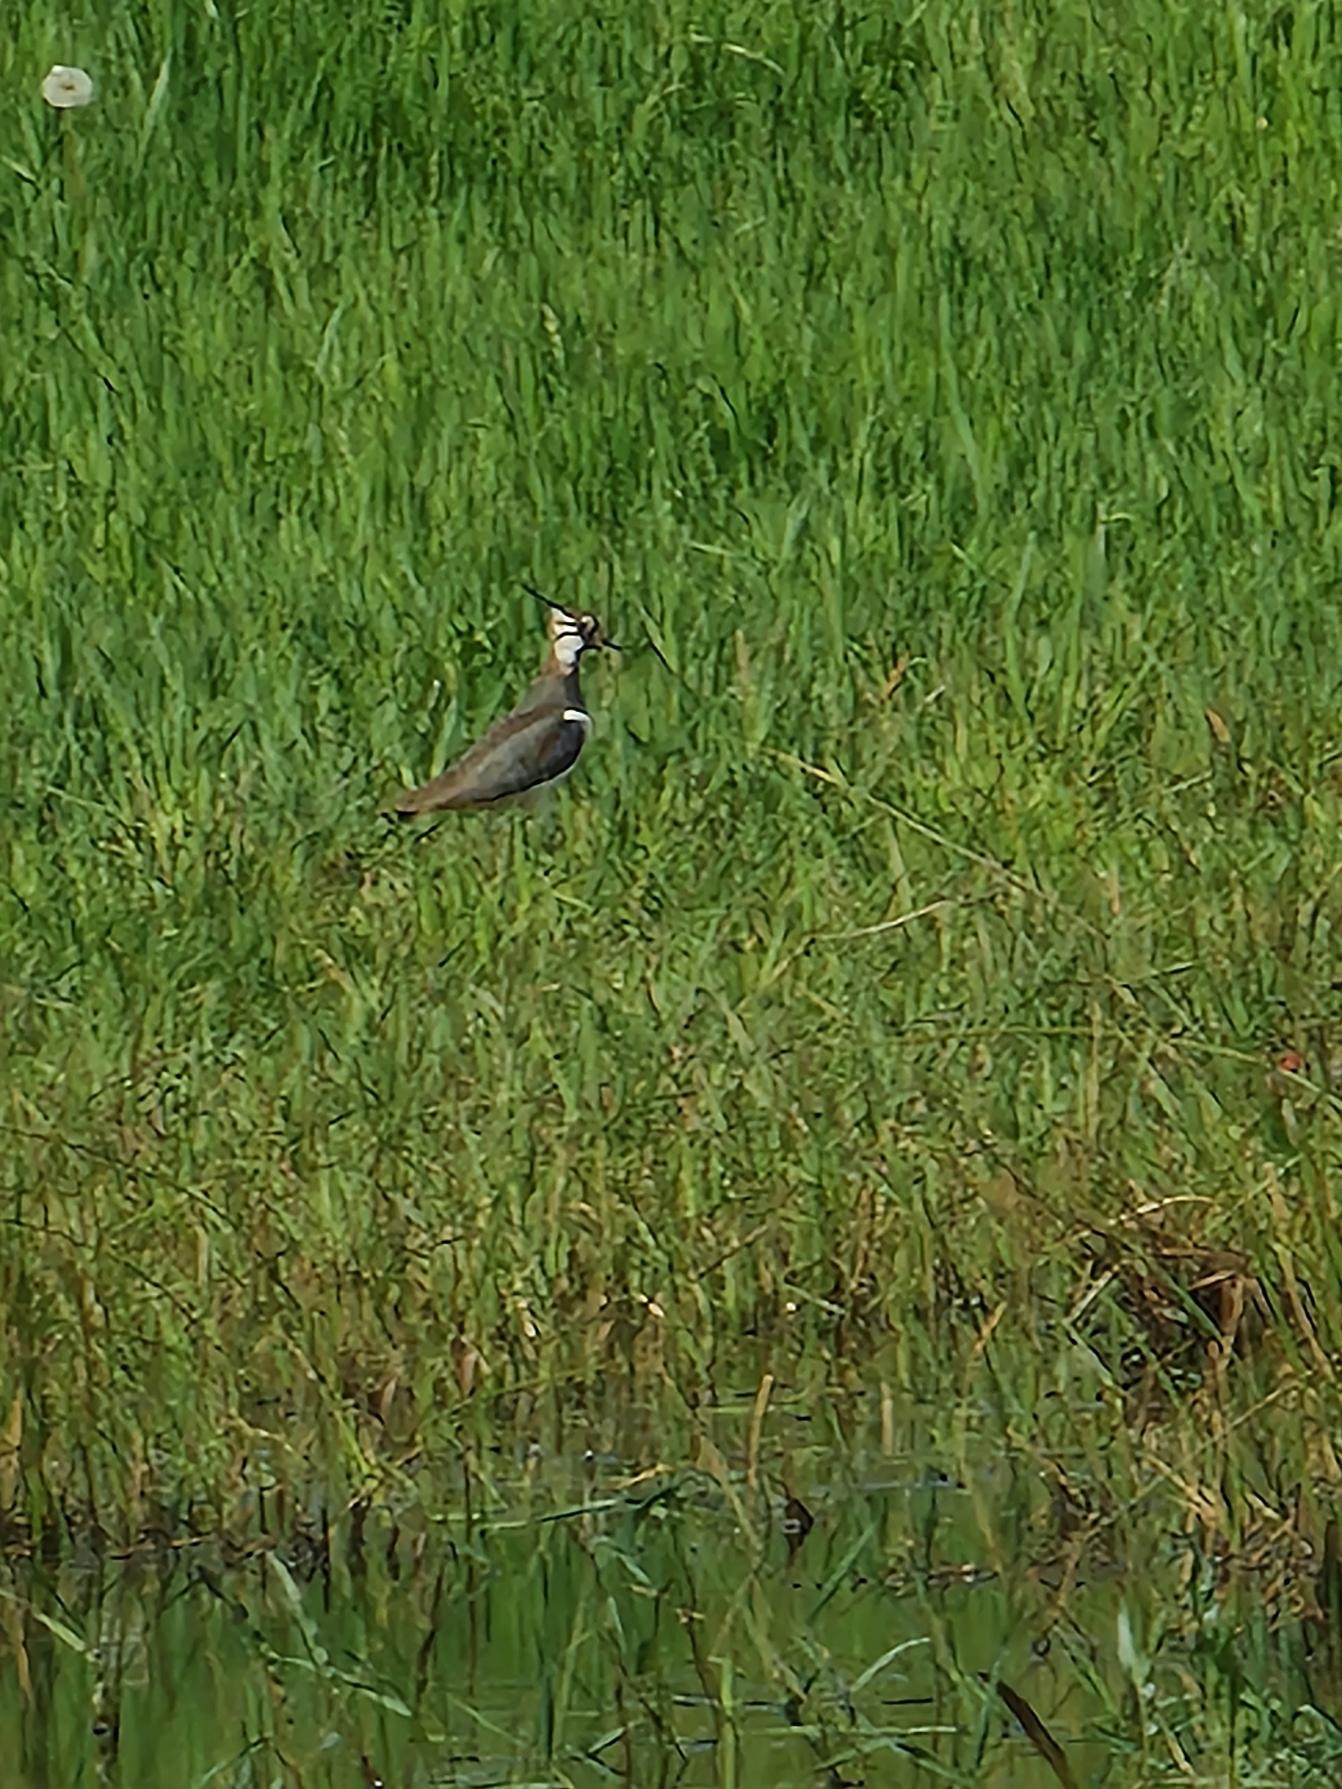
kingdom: Animalia
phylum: Chordata
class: Aves
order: Charadriiformes
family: Charadriidae
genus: Vanellus
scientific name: Vanellus vanellus
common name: Vibe
